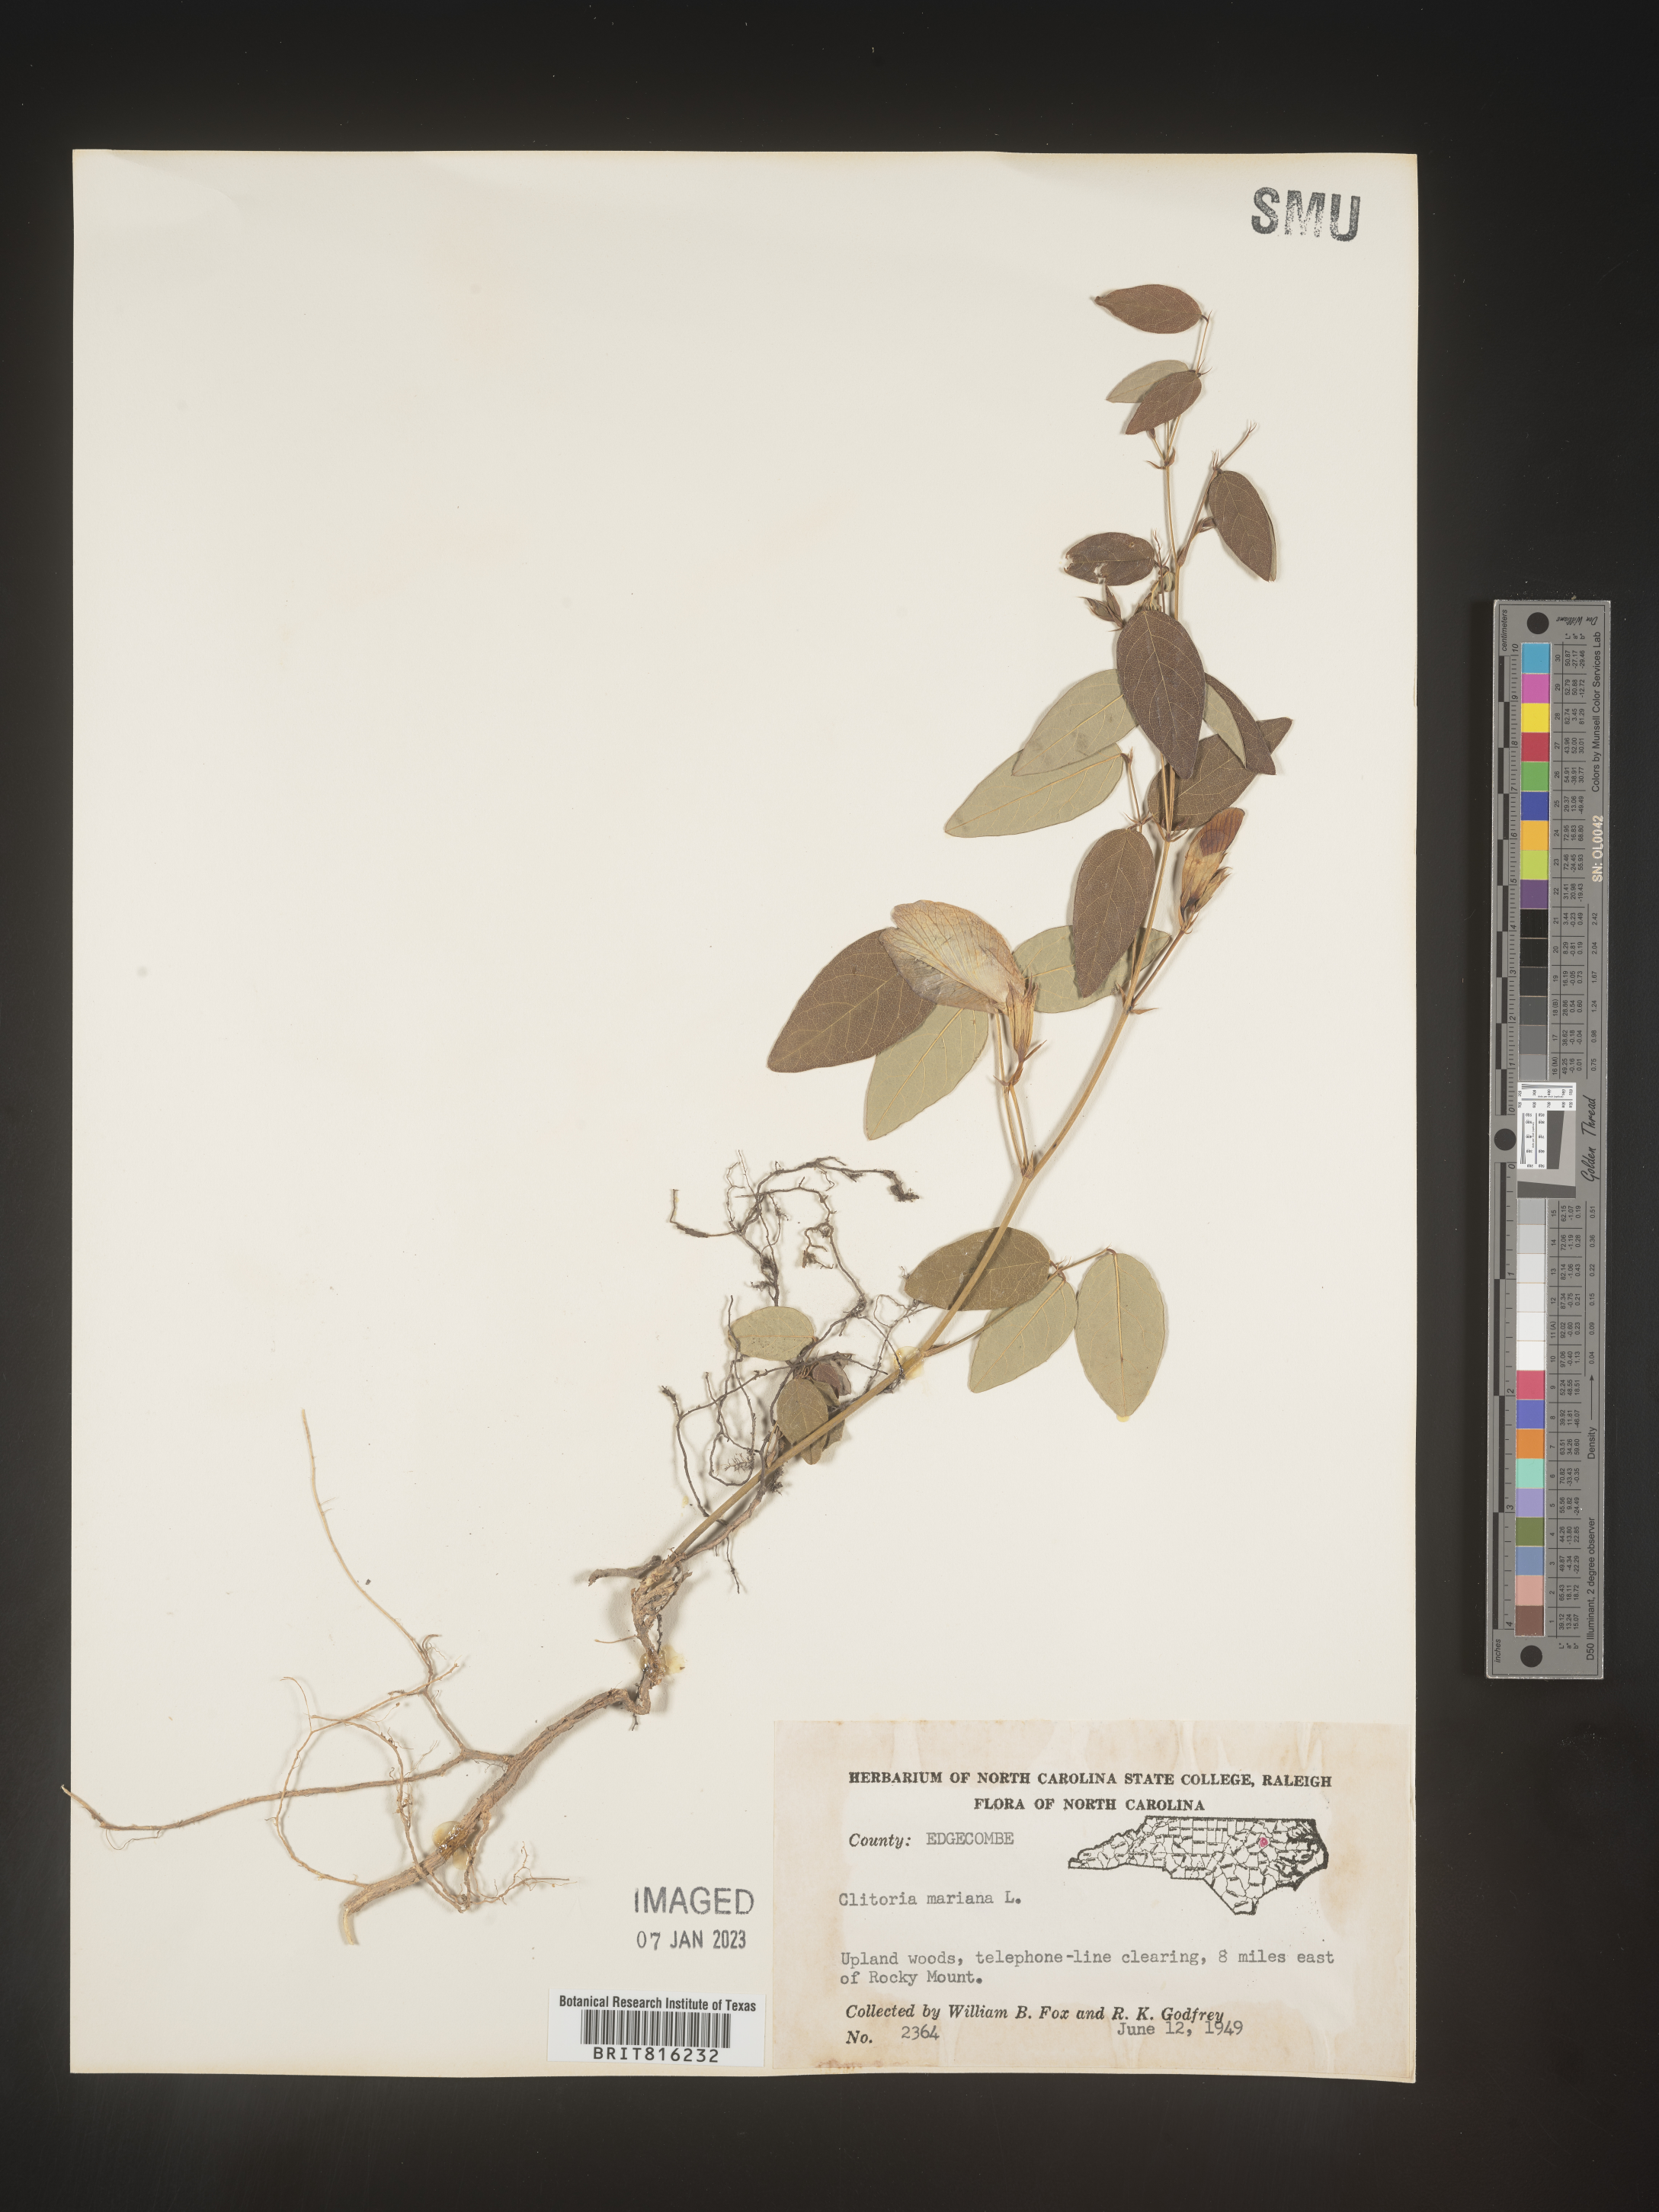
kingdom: Plantae
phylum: Tracheophyta
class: Magnoliopsida
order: Fabales
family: Fabaceae
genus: Clitoria
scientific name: Clitoria mariana
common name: Butterfly-pea
